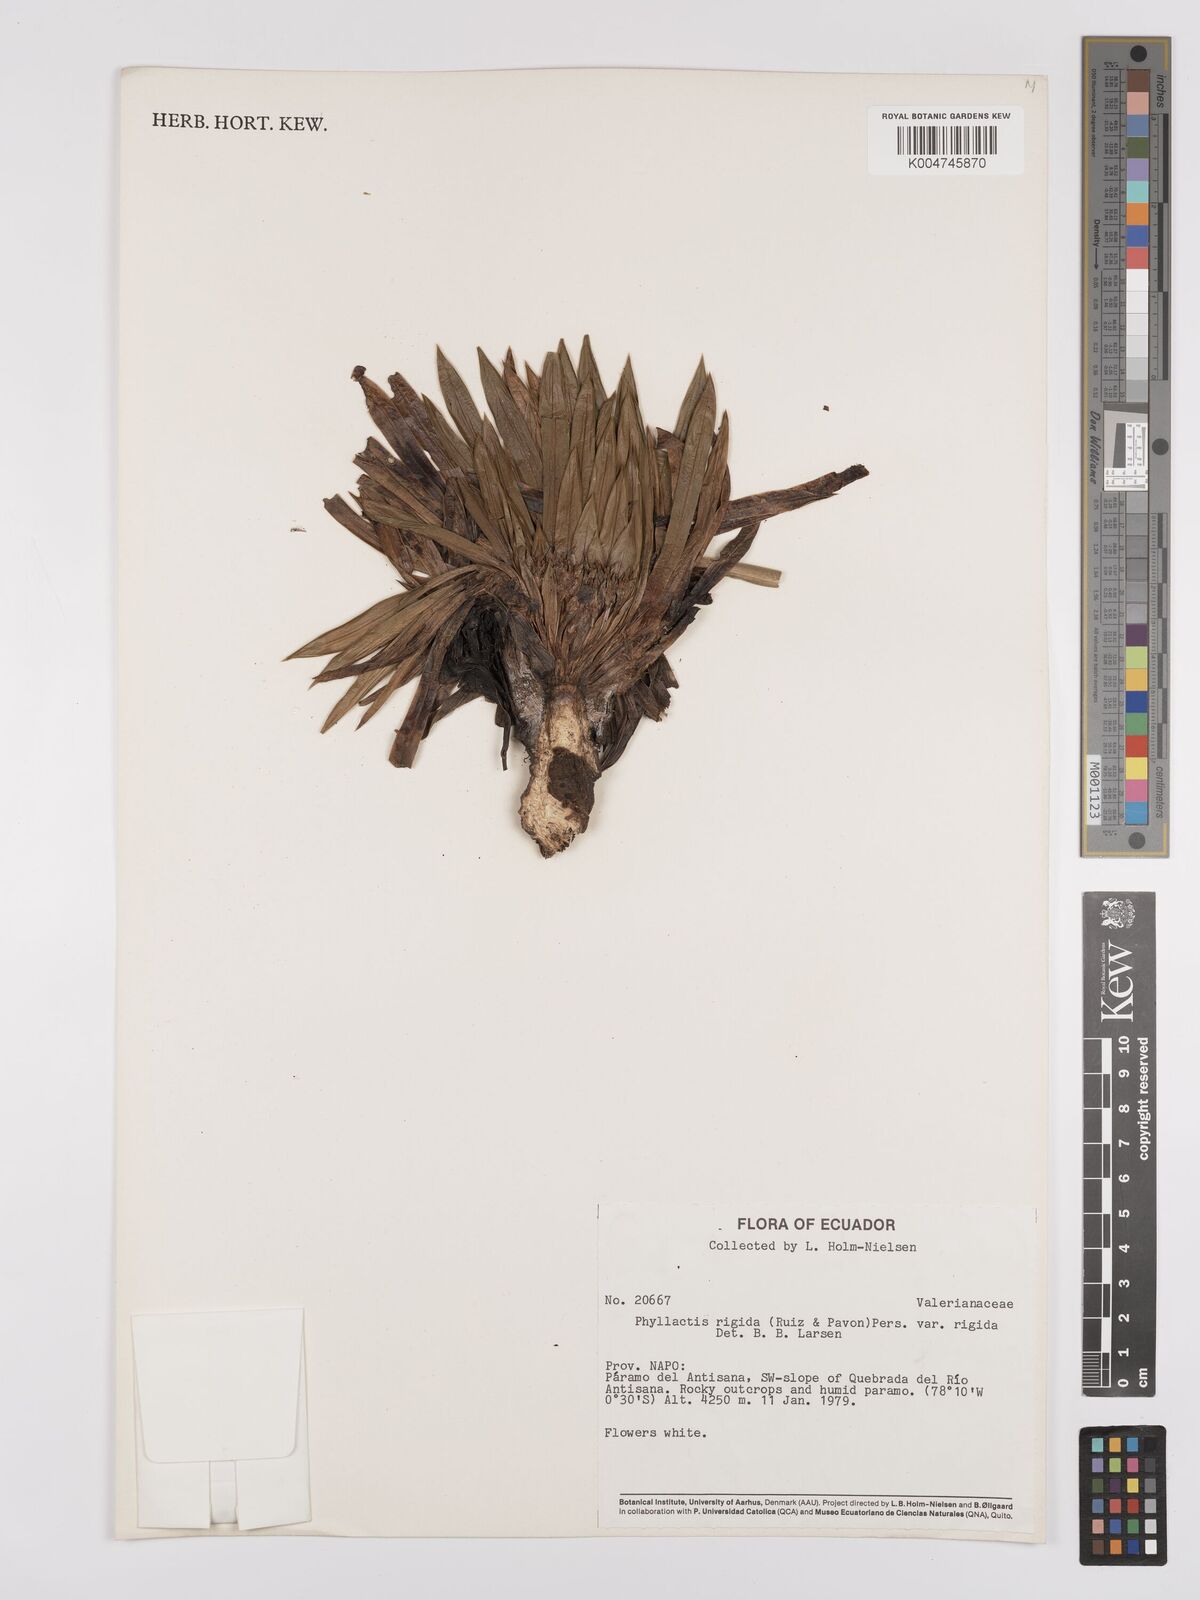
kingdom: Plantae
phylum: Tracheophyta
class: Magnoliopsida
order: Dipsacales
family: Caprifoliaceae
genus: Valeriana
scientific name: Valeriana rigida
